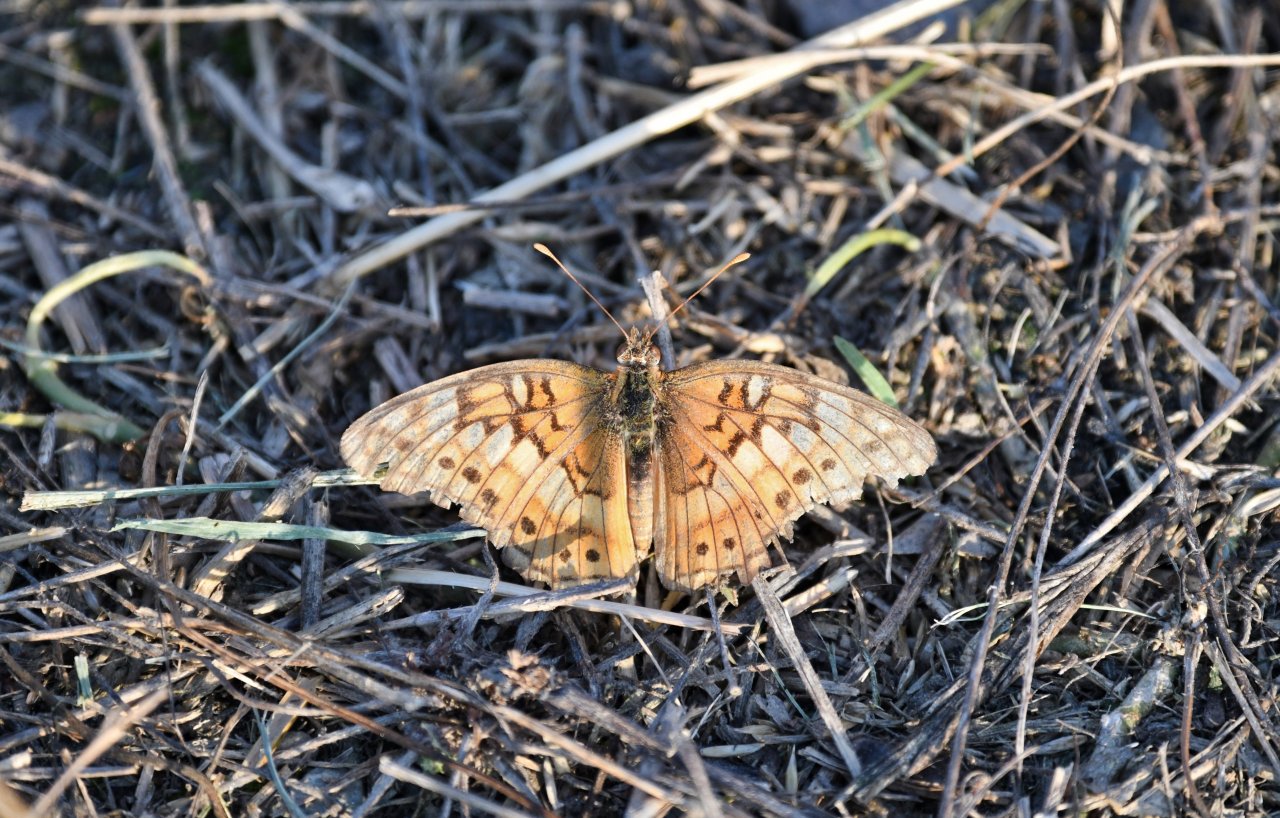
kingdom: Animalia
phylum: Arthropoda
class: Insecta
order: Lepidoptera
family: Nymphalidae
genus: Euptoieta
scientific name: Euptoieta claudia
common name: Variegated Fritillary
